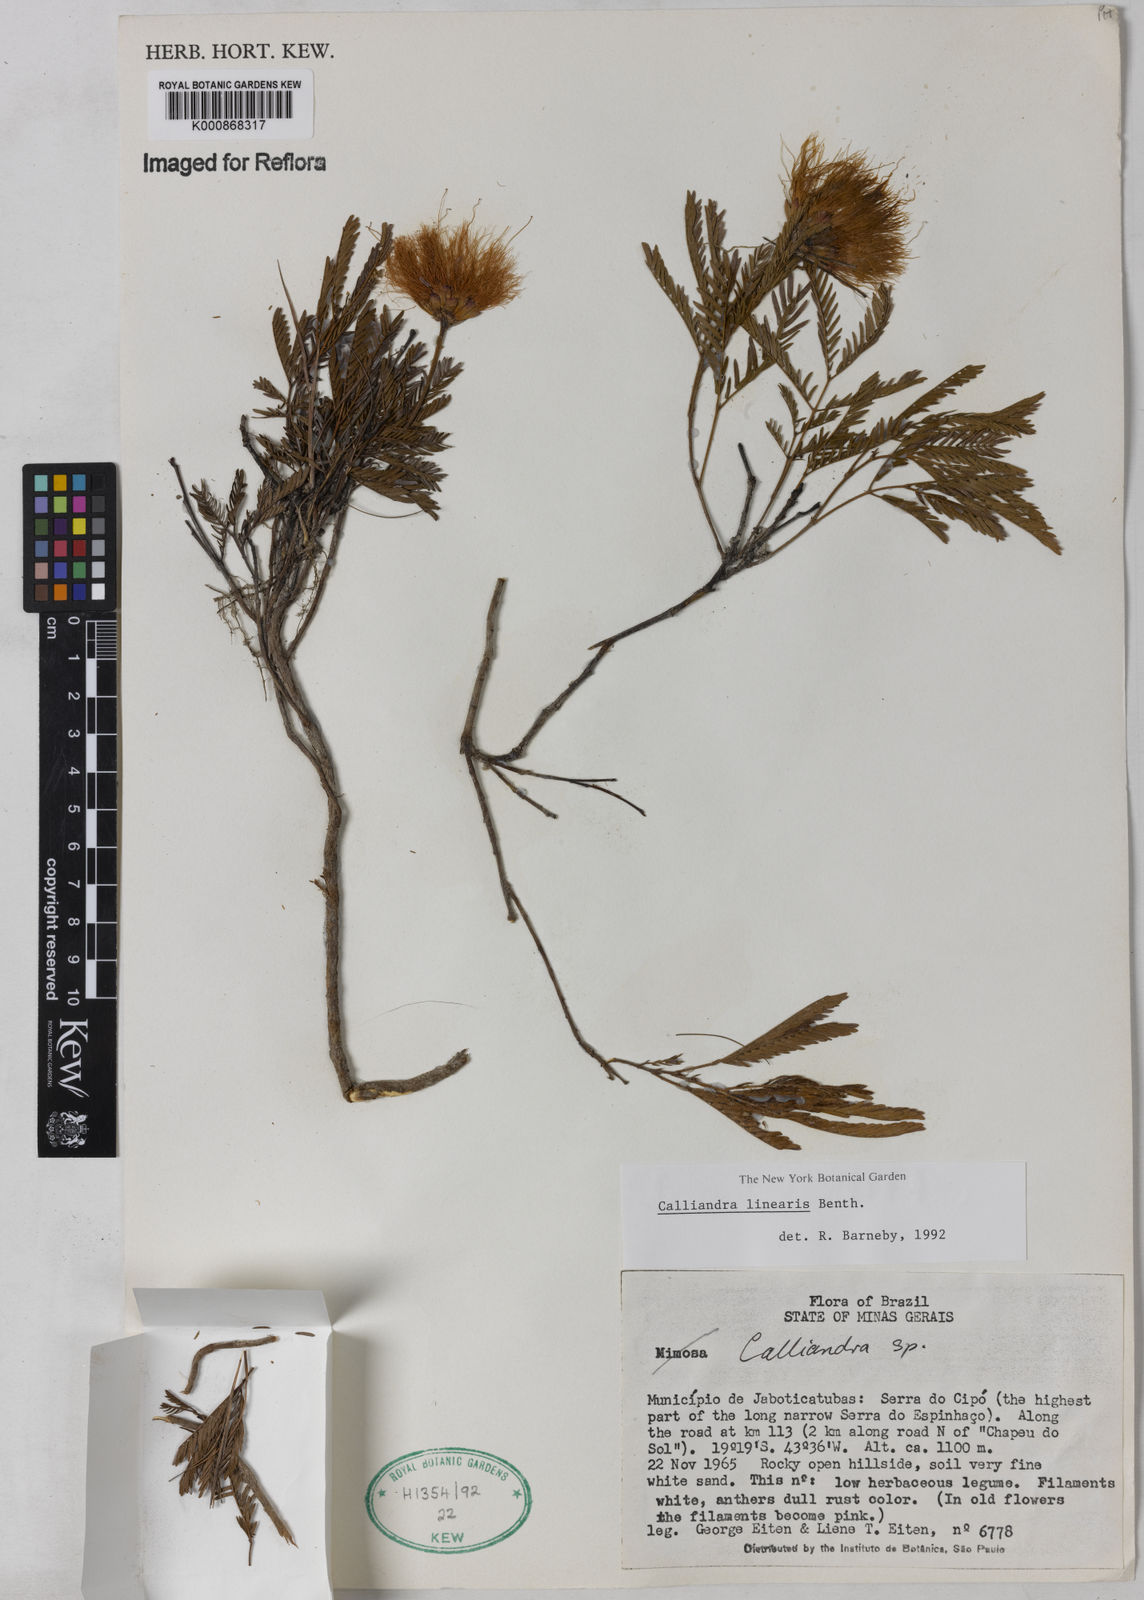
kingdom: Plantae
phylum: Tracheophyta
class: Magnoliopsida
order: Fabales
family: Fabaceae
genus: Calliandra
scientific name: Calliandra linearis
